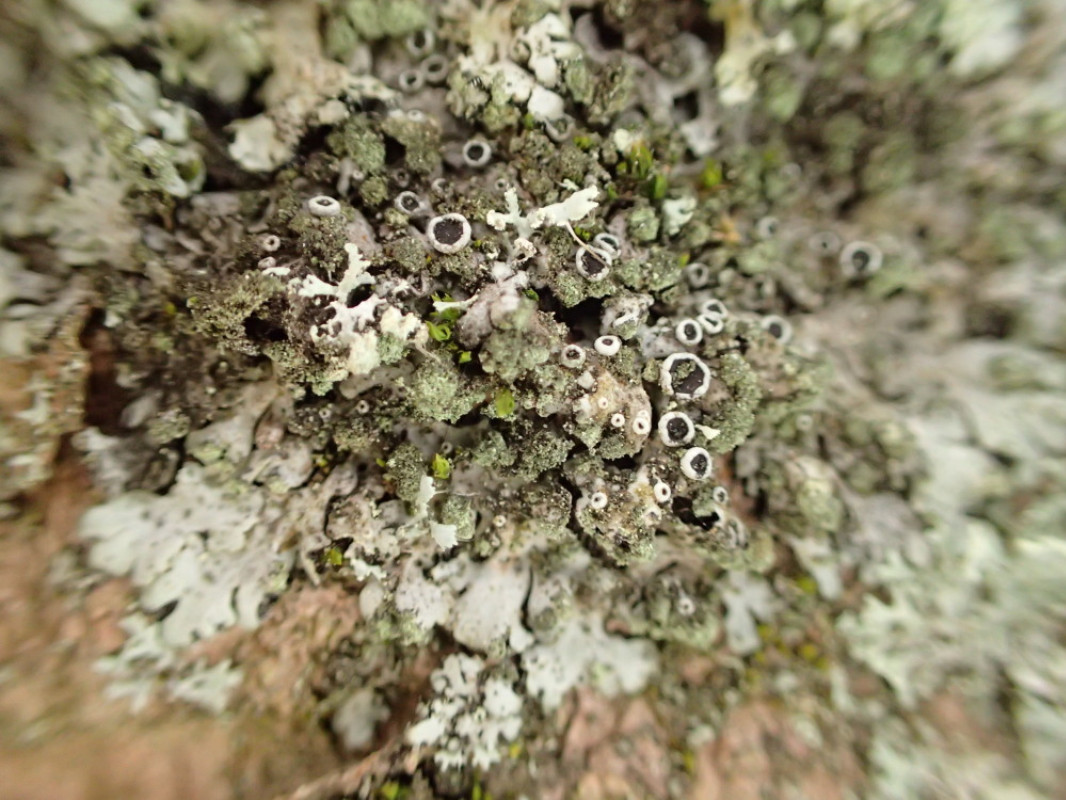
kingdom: Fungi
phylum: Ascomycota
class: Lecanoromycetes
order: Caliciales
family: Physciaceae
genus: Phaeophyscia
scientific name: Phaeophyscia orbicularis
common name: grågrøn rosetlav
